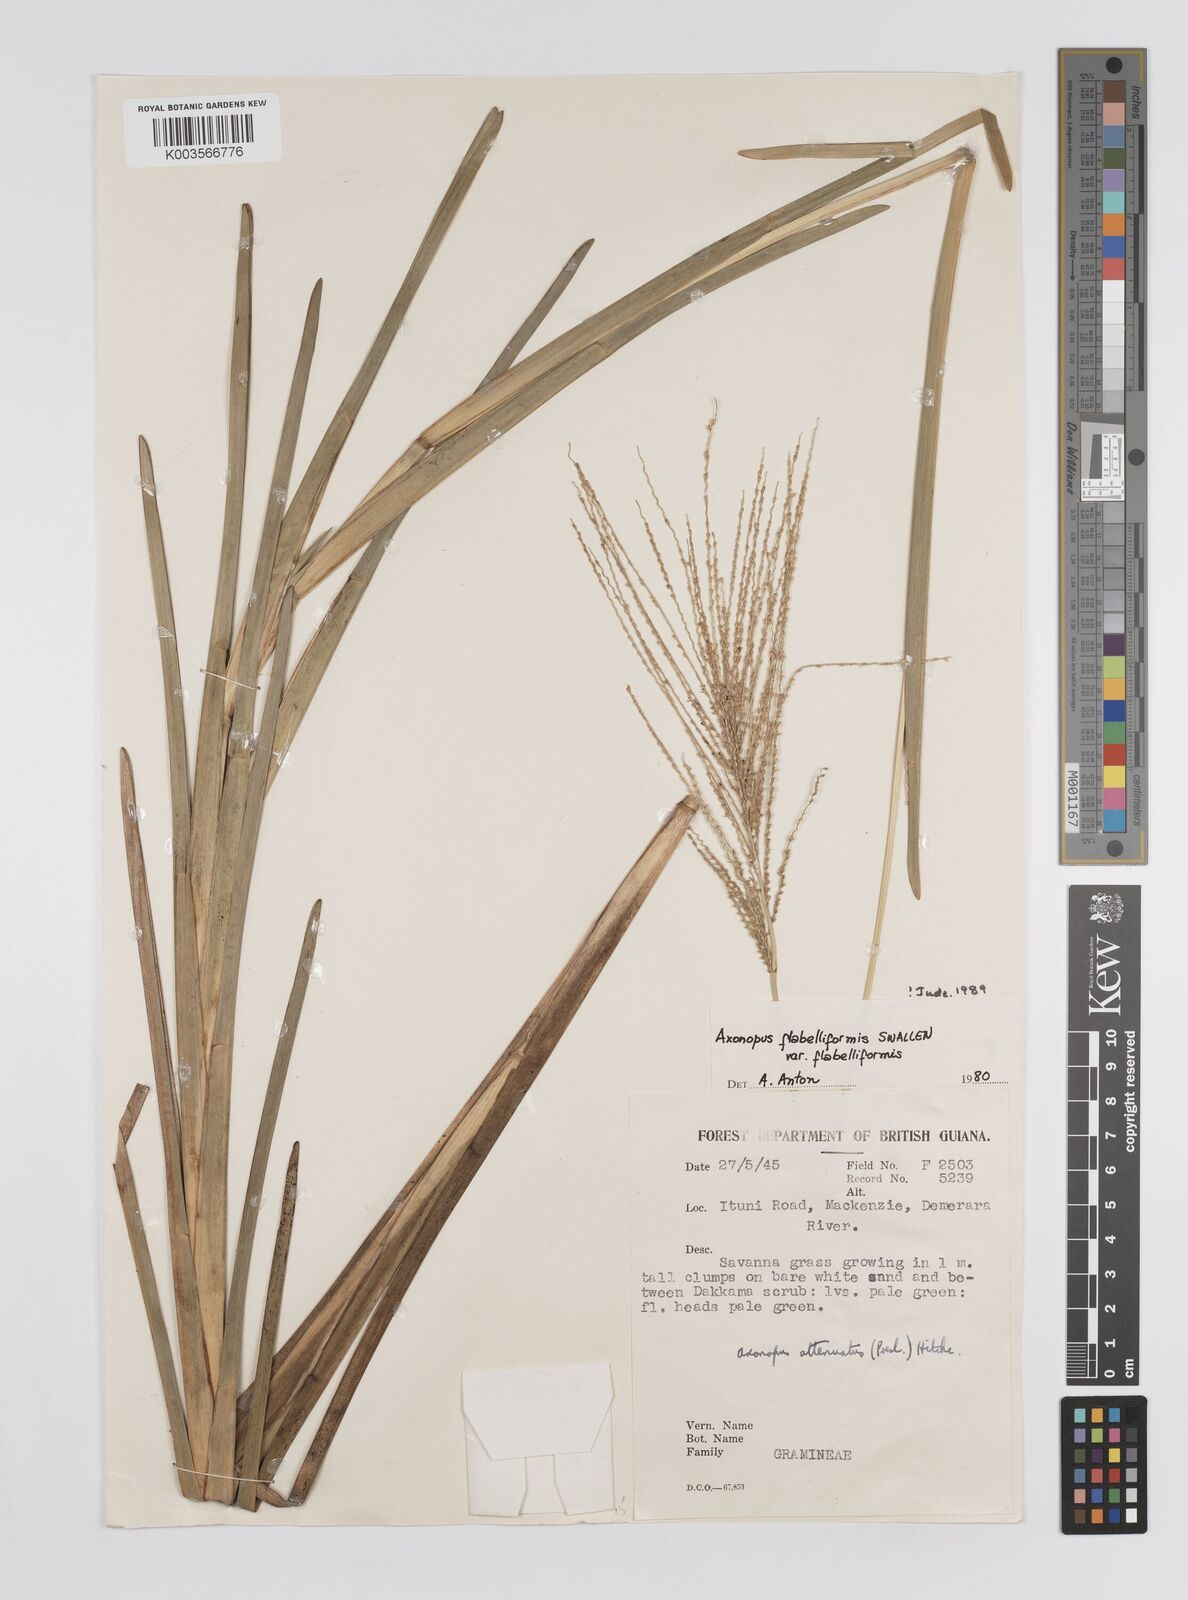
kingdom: Plantae
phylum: Tracheophyta
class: Liliopsida
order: Poales
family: Poaceae
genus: Axonopus
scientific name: Axonopus flabelliformis
